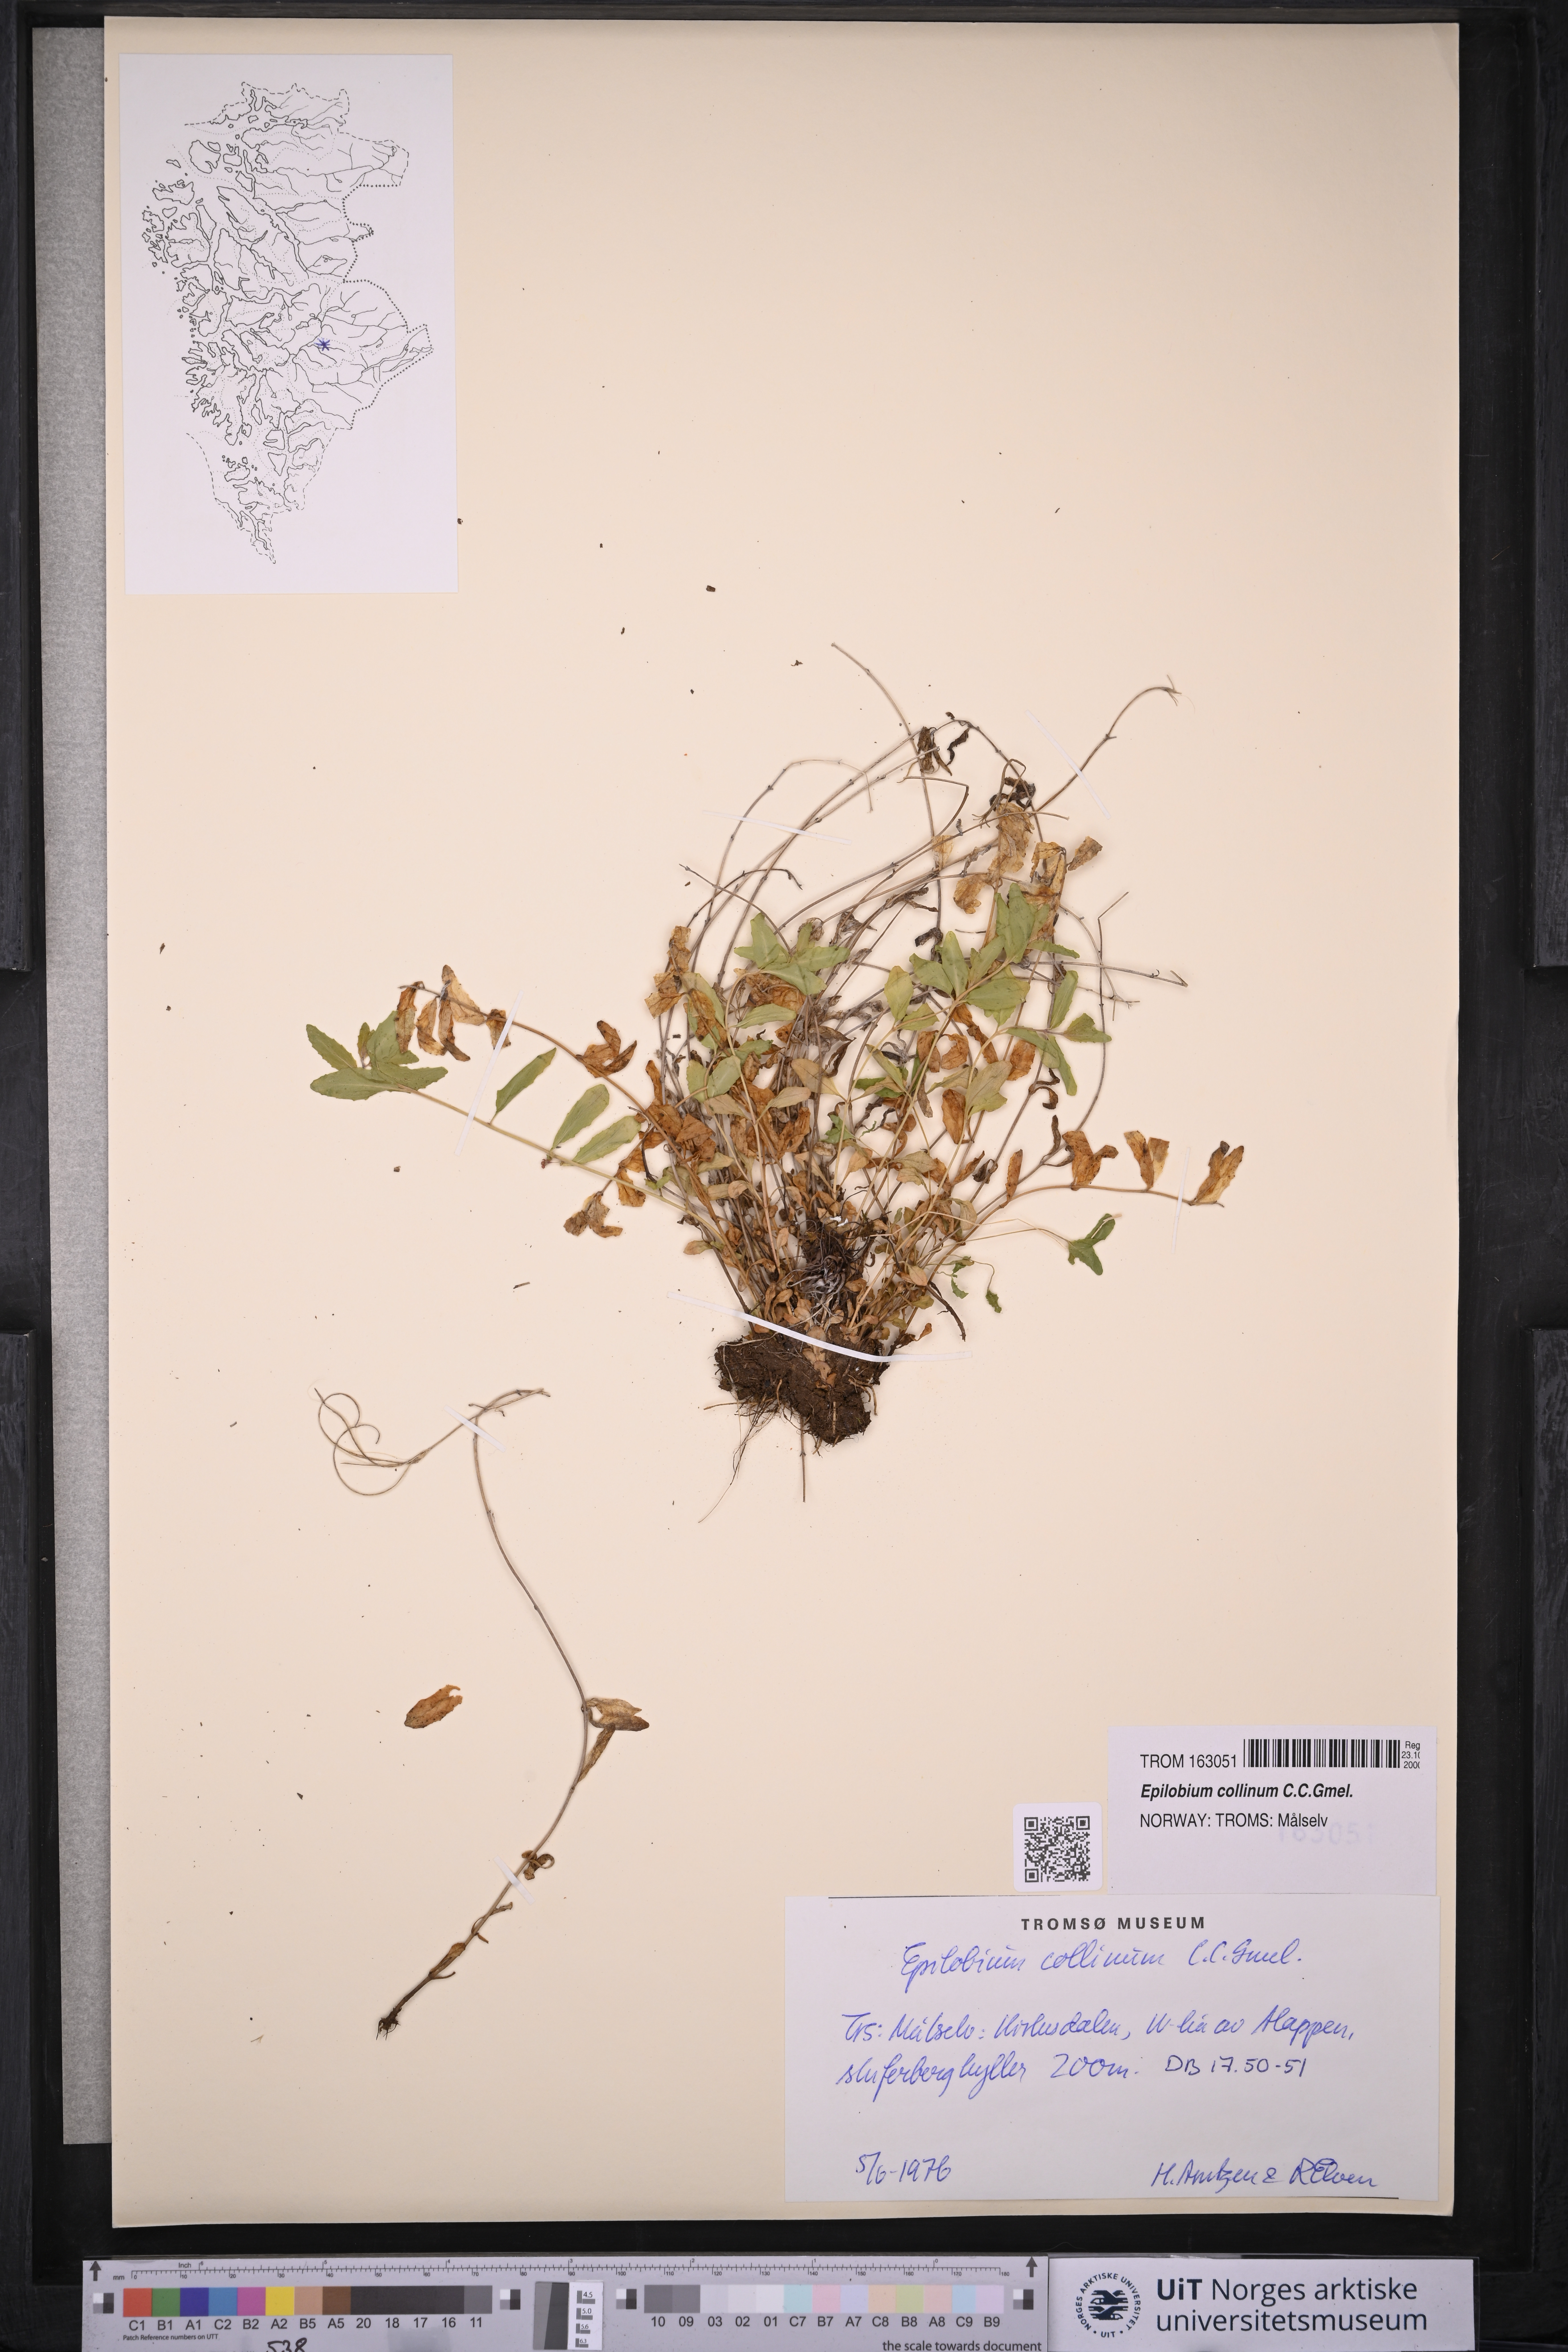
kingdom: Plantae
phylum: Tracheophyta
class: Magnoliopsida
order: Myrtales
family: Onagraceae
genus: Epilobium
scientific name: Epilobium collinum
